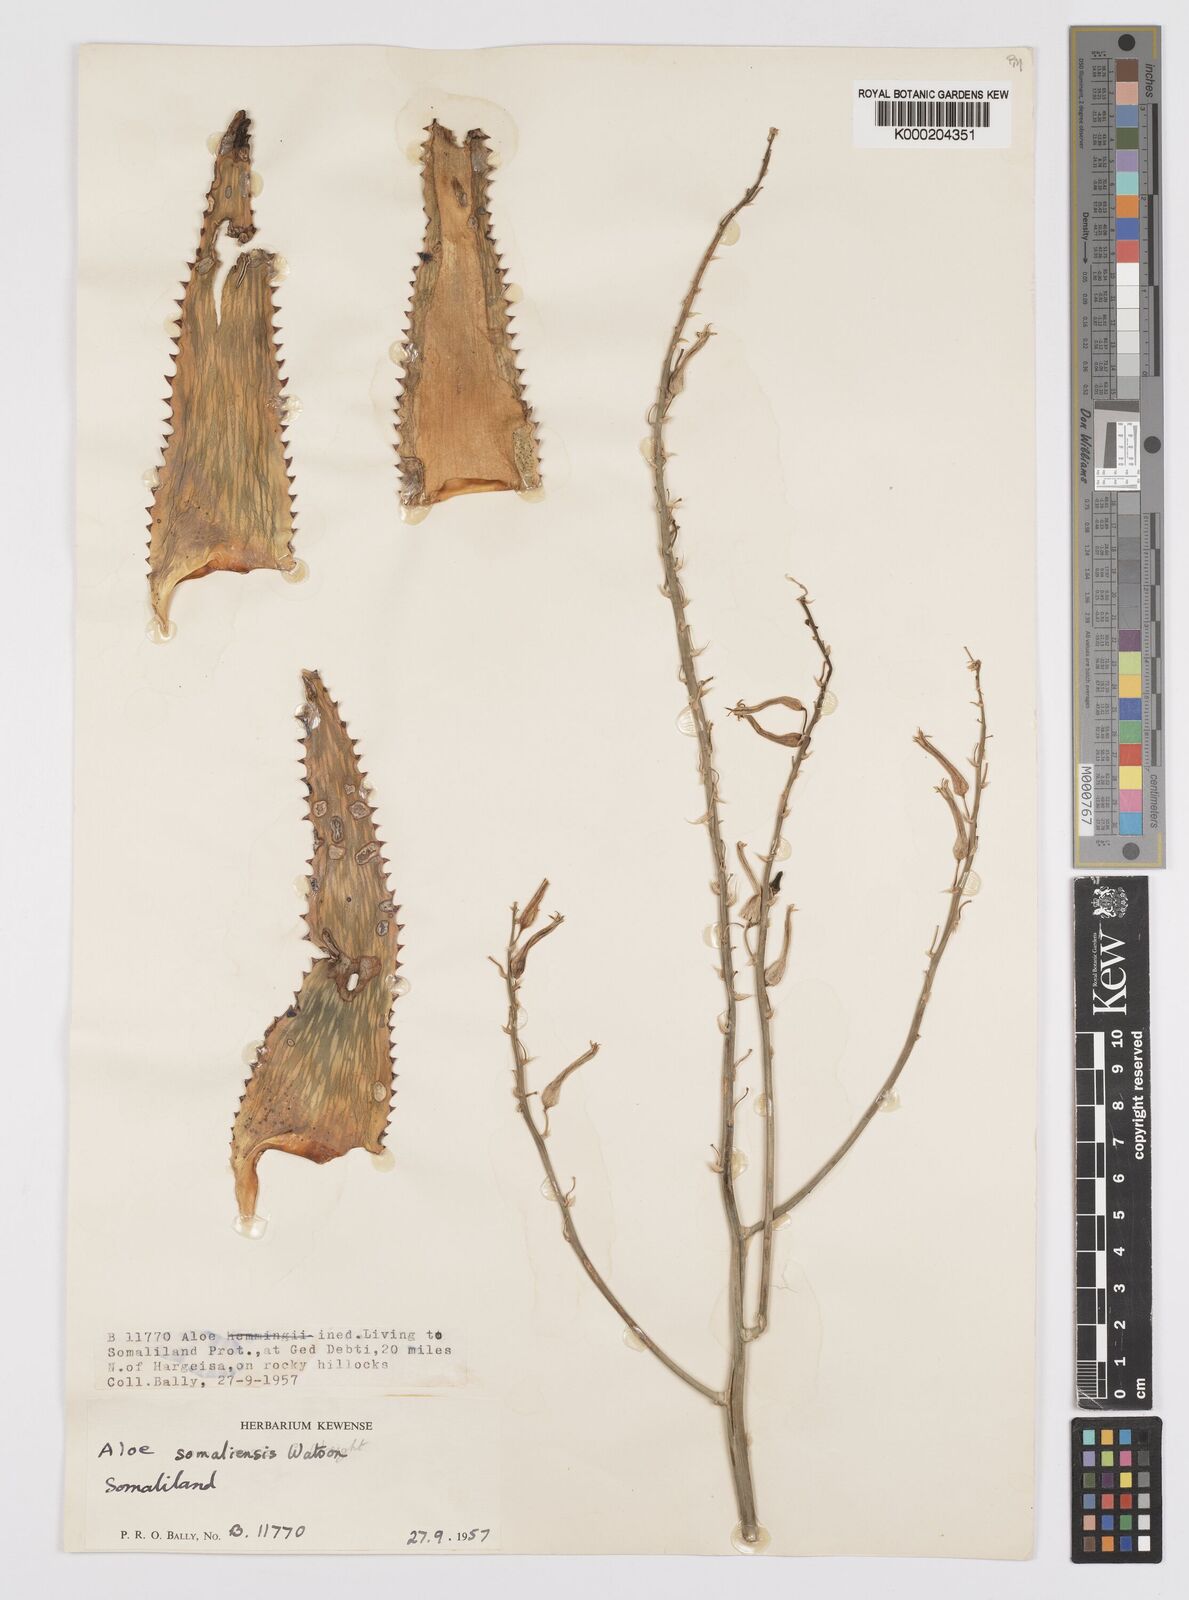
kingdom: Plantae
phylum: Tracheophyta
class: Liliopsida
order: Asparagales
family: Asphodelaceae
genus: Aloe
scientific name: Aloe somaliensis
